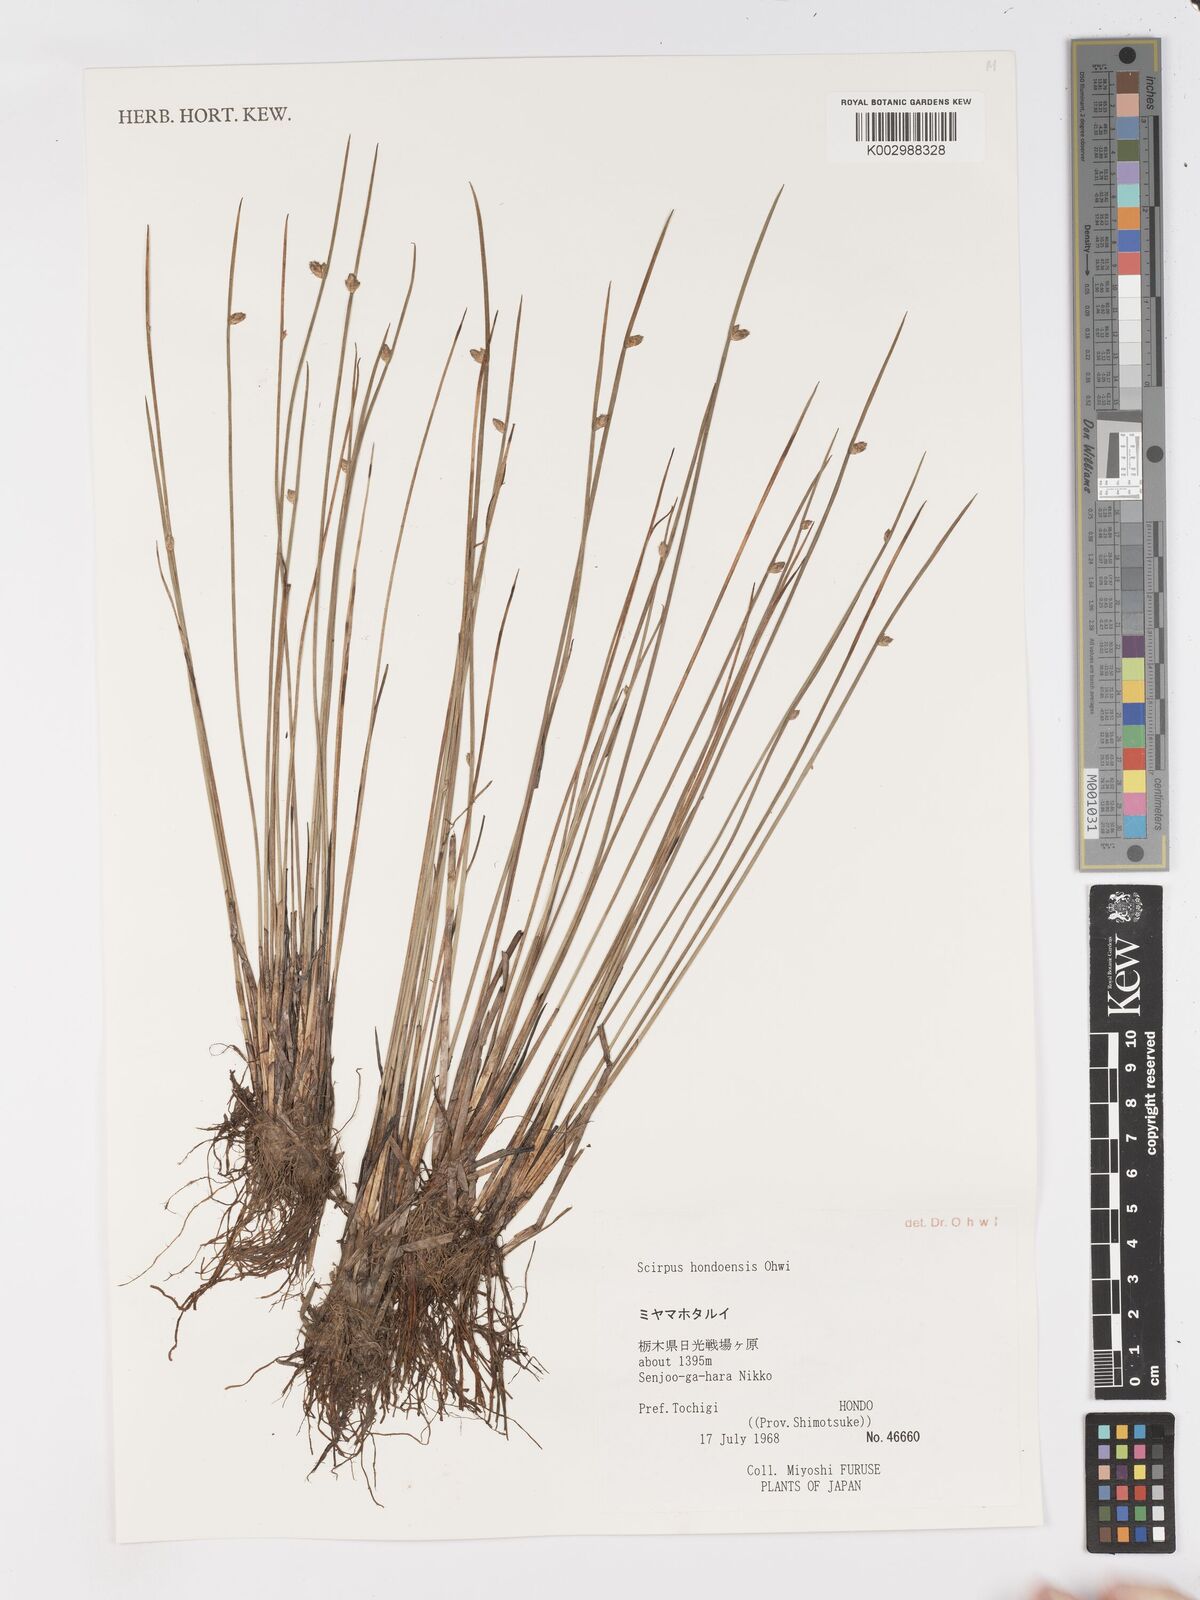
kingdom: Plantae
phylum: Tracheophyta
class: Liliopsida
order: Poales
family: Cyperaceae
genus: Schoenoplectiella
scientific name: Schoenoplectiella hondoensis
